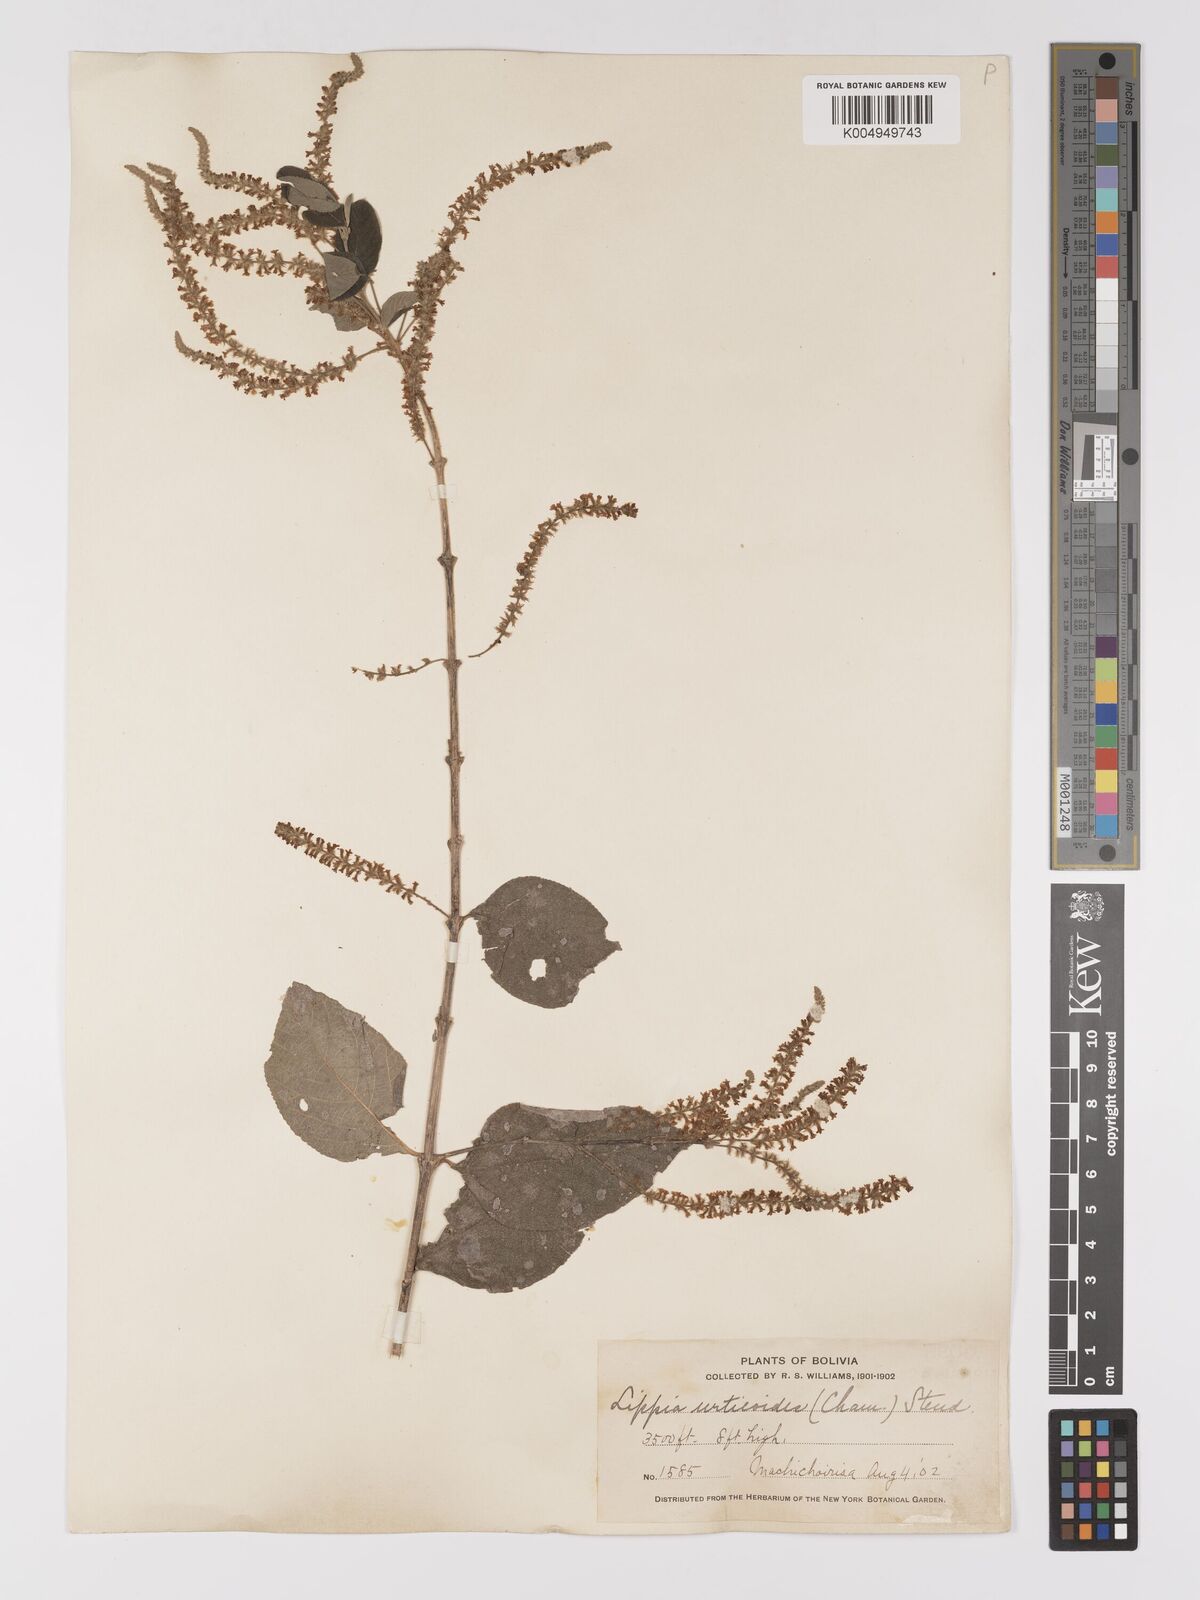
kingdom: Plantae
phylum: Tracheophyta
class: Magnoliopsida
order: Lamiales
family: Verbenaceae
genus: Aloysia
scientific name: Aloysia virgata
